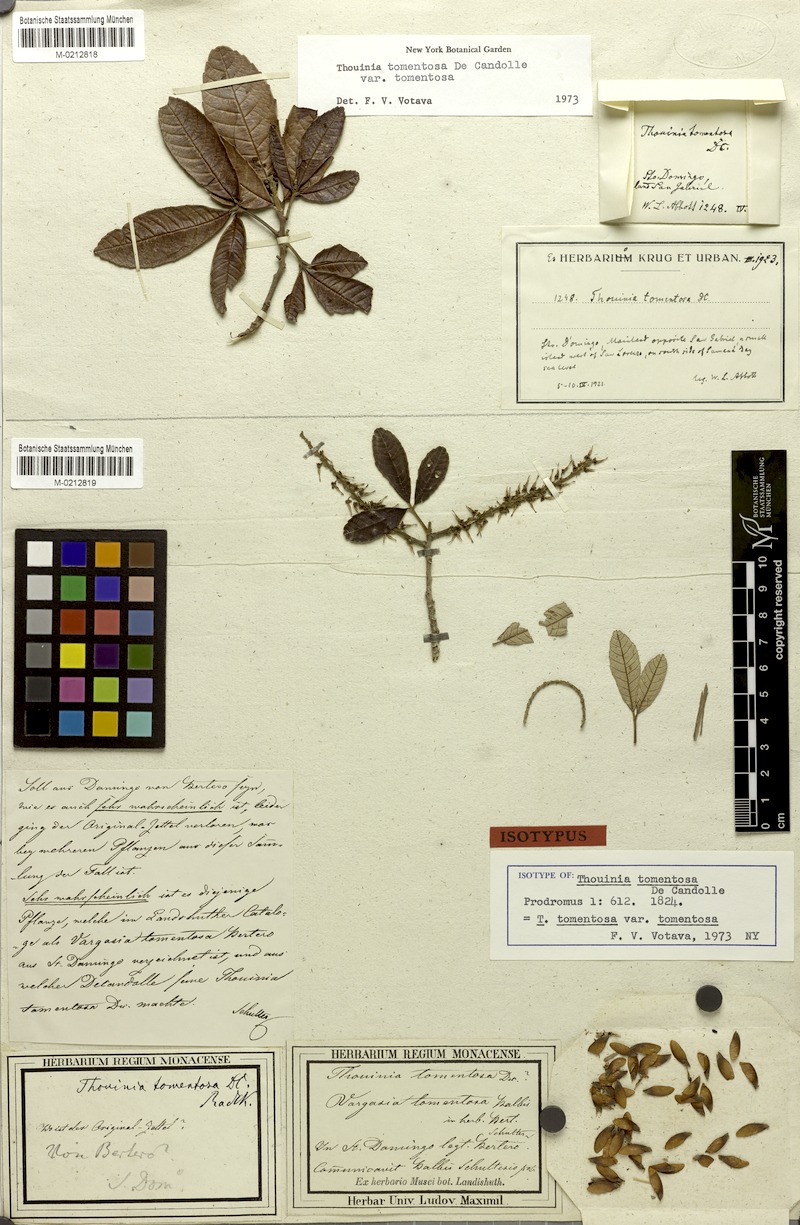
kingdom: Plantae
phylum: Tracheophyta
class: Magnoliopsida
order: Sapindales
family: Sapindaceae
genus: Thouinia
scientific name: Thouinia tomentosa
